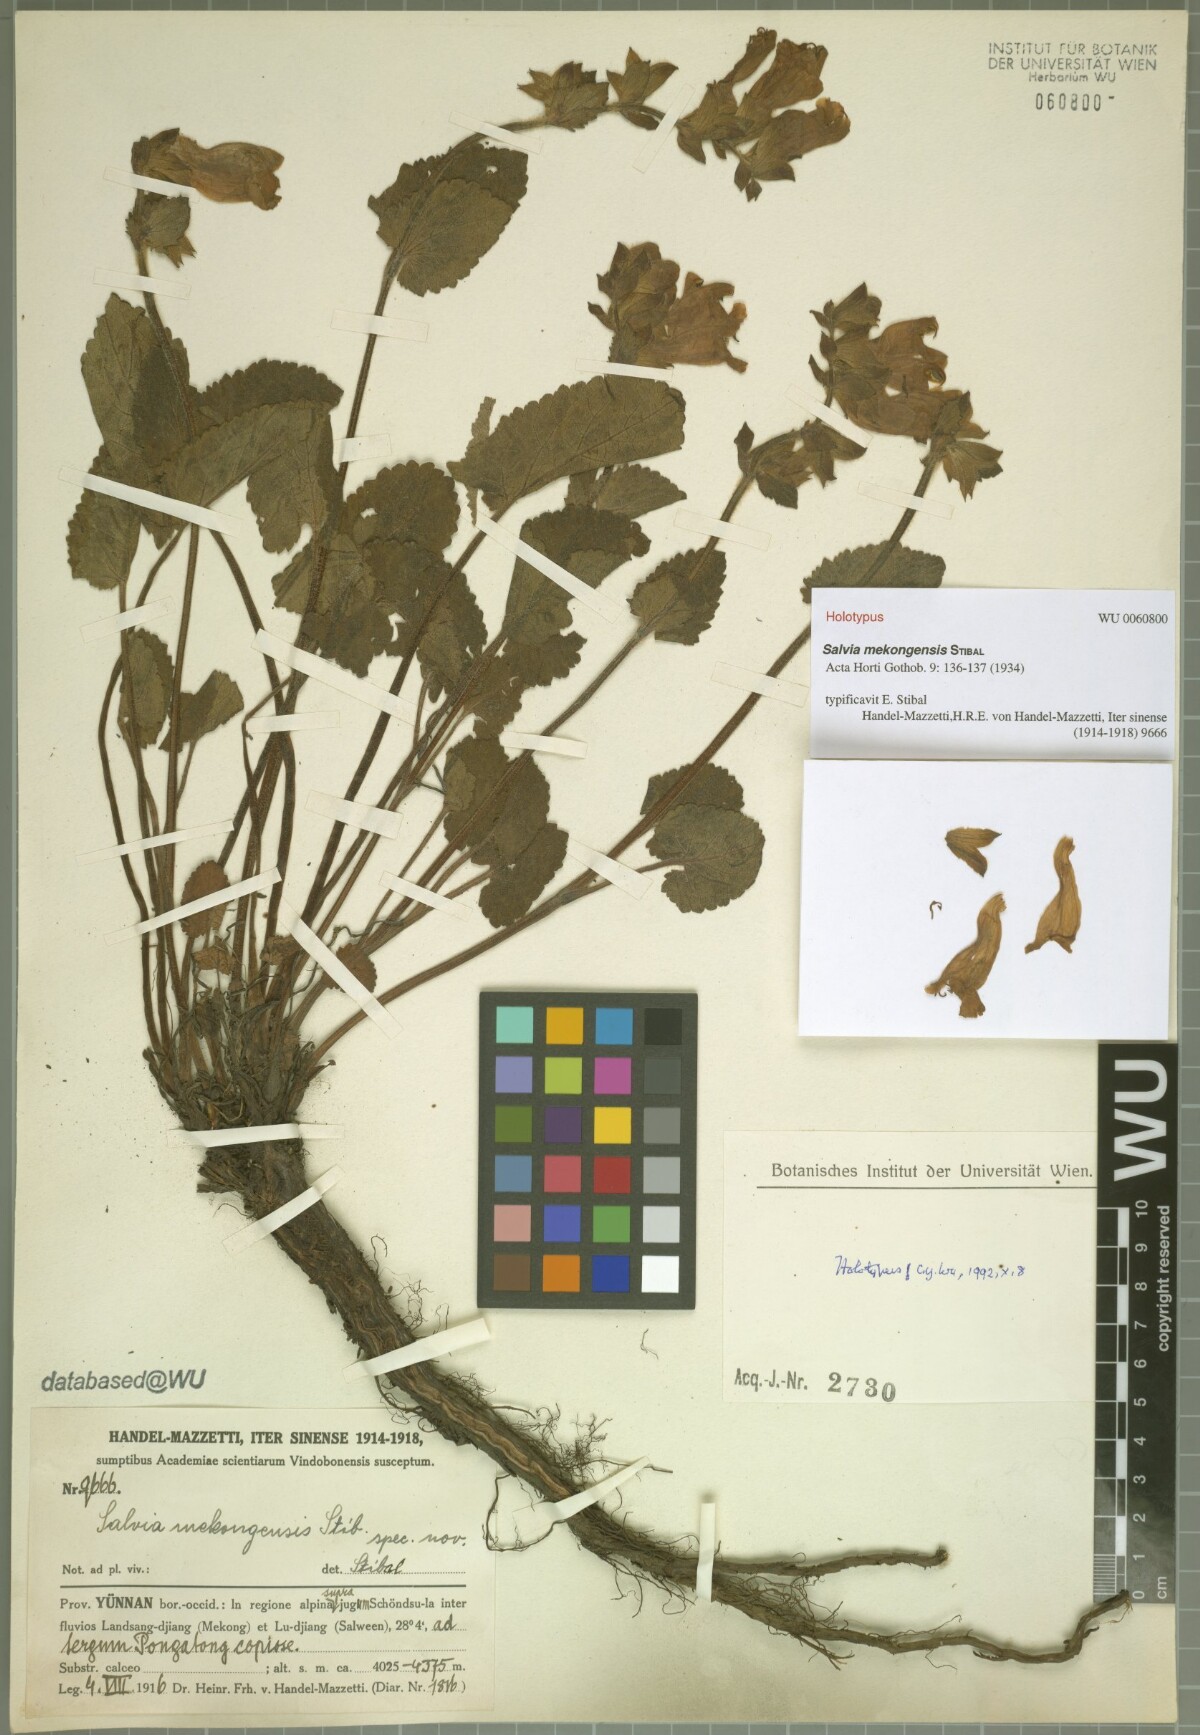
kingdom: Plantae
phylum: Tracheophyta
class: Magnoliopsida
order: Lamiales
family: Lamiaceae
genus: Salvia
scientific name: Salvia mekongensis
